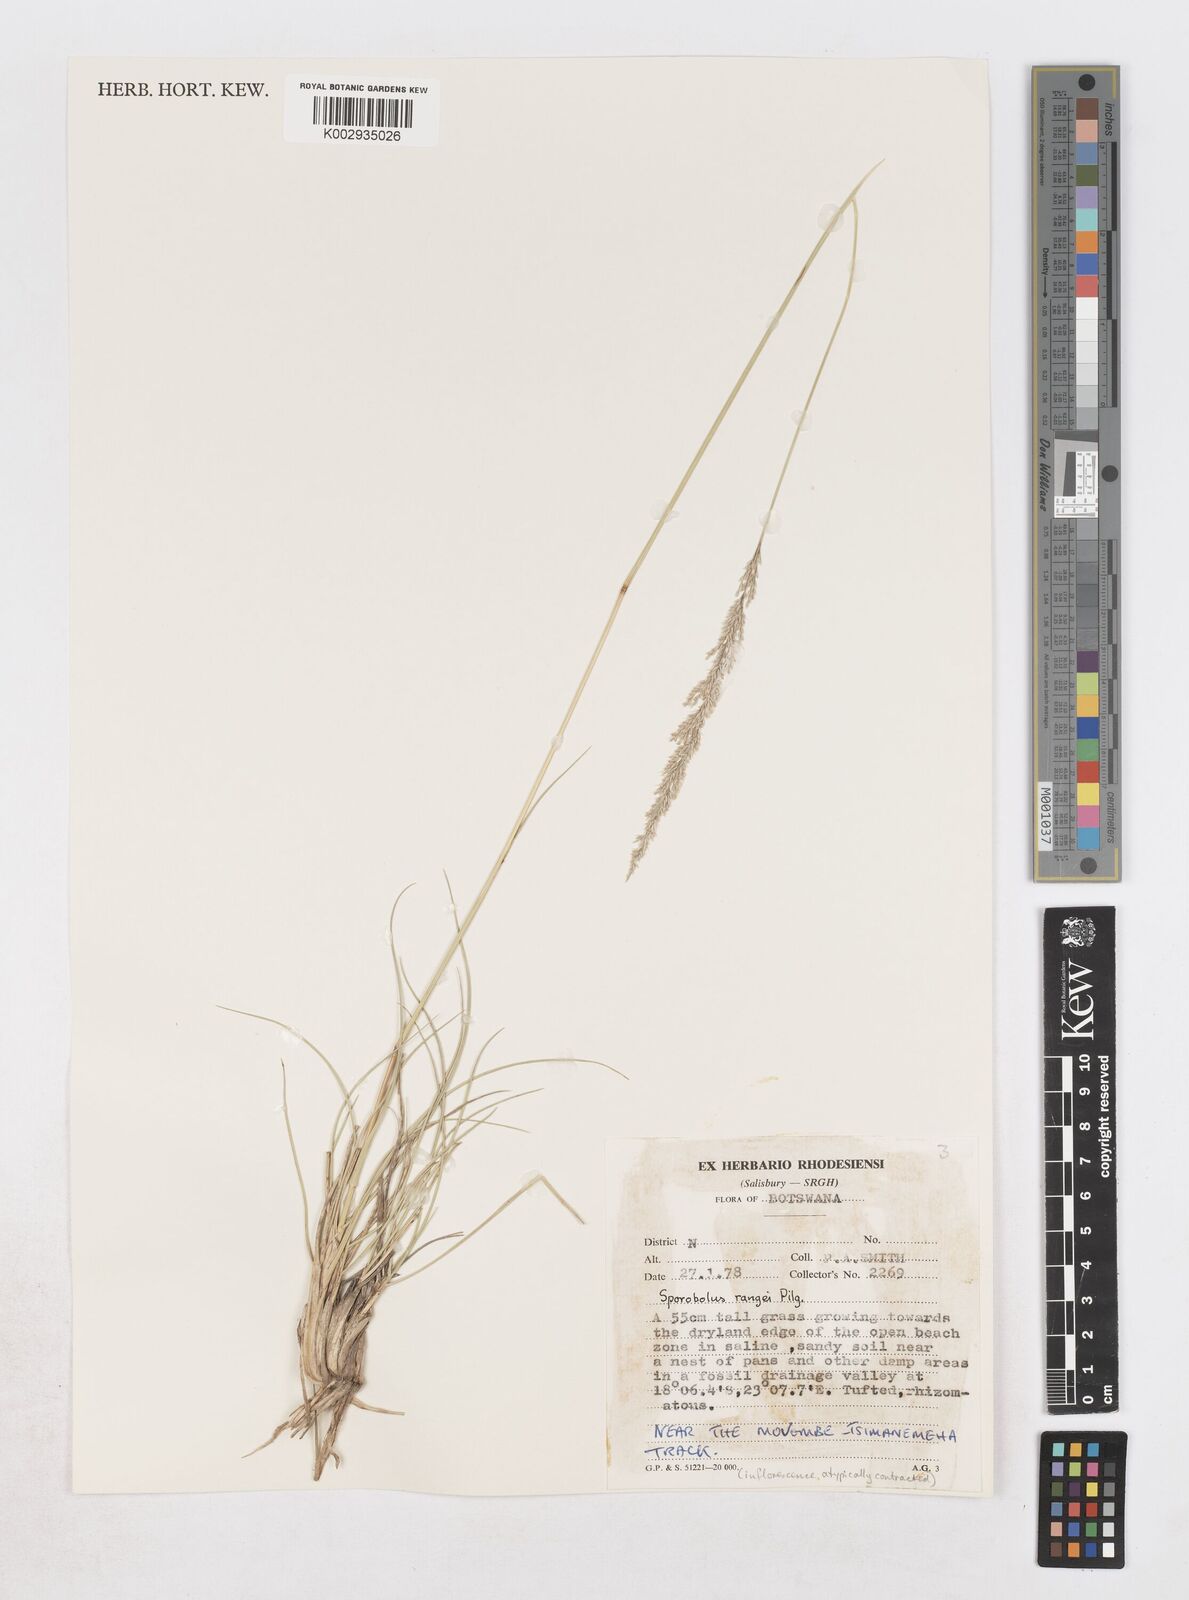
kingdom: Plantae
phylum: Tracheophyta
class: Liliopsida
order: Poales
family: Poaceae
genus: Sporobolus
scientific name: Sporobolus ioclados
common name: Pan dropseed
